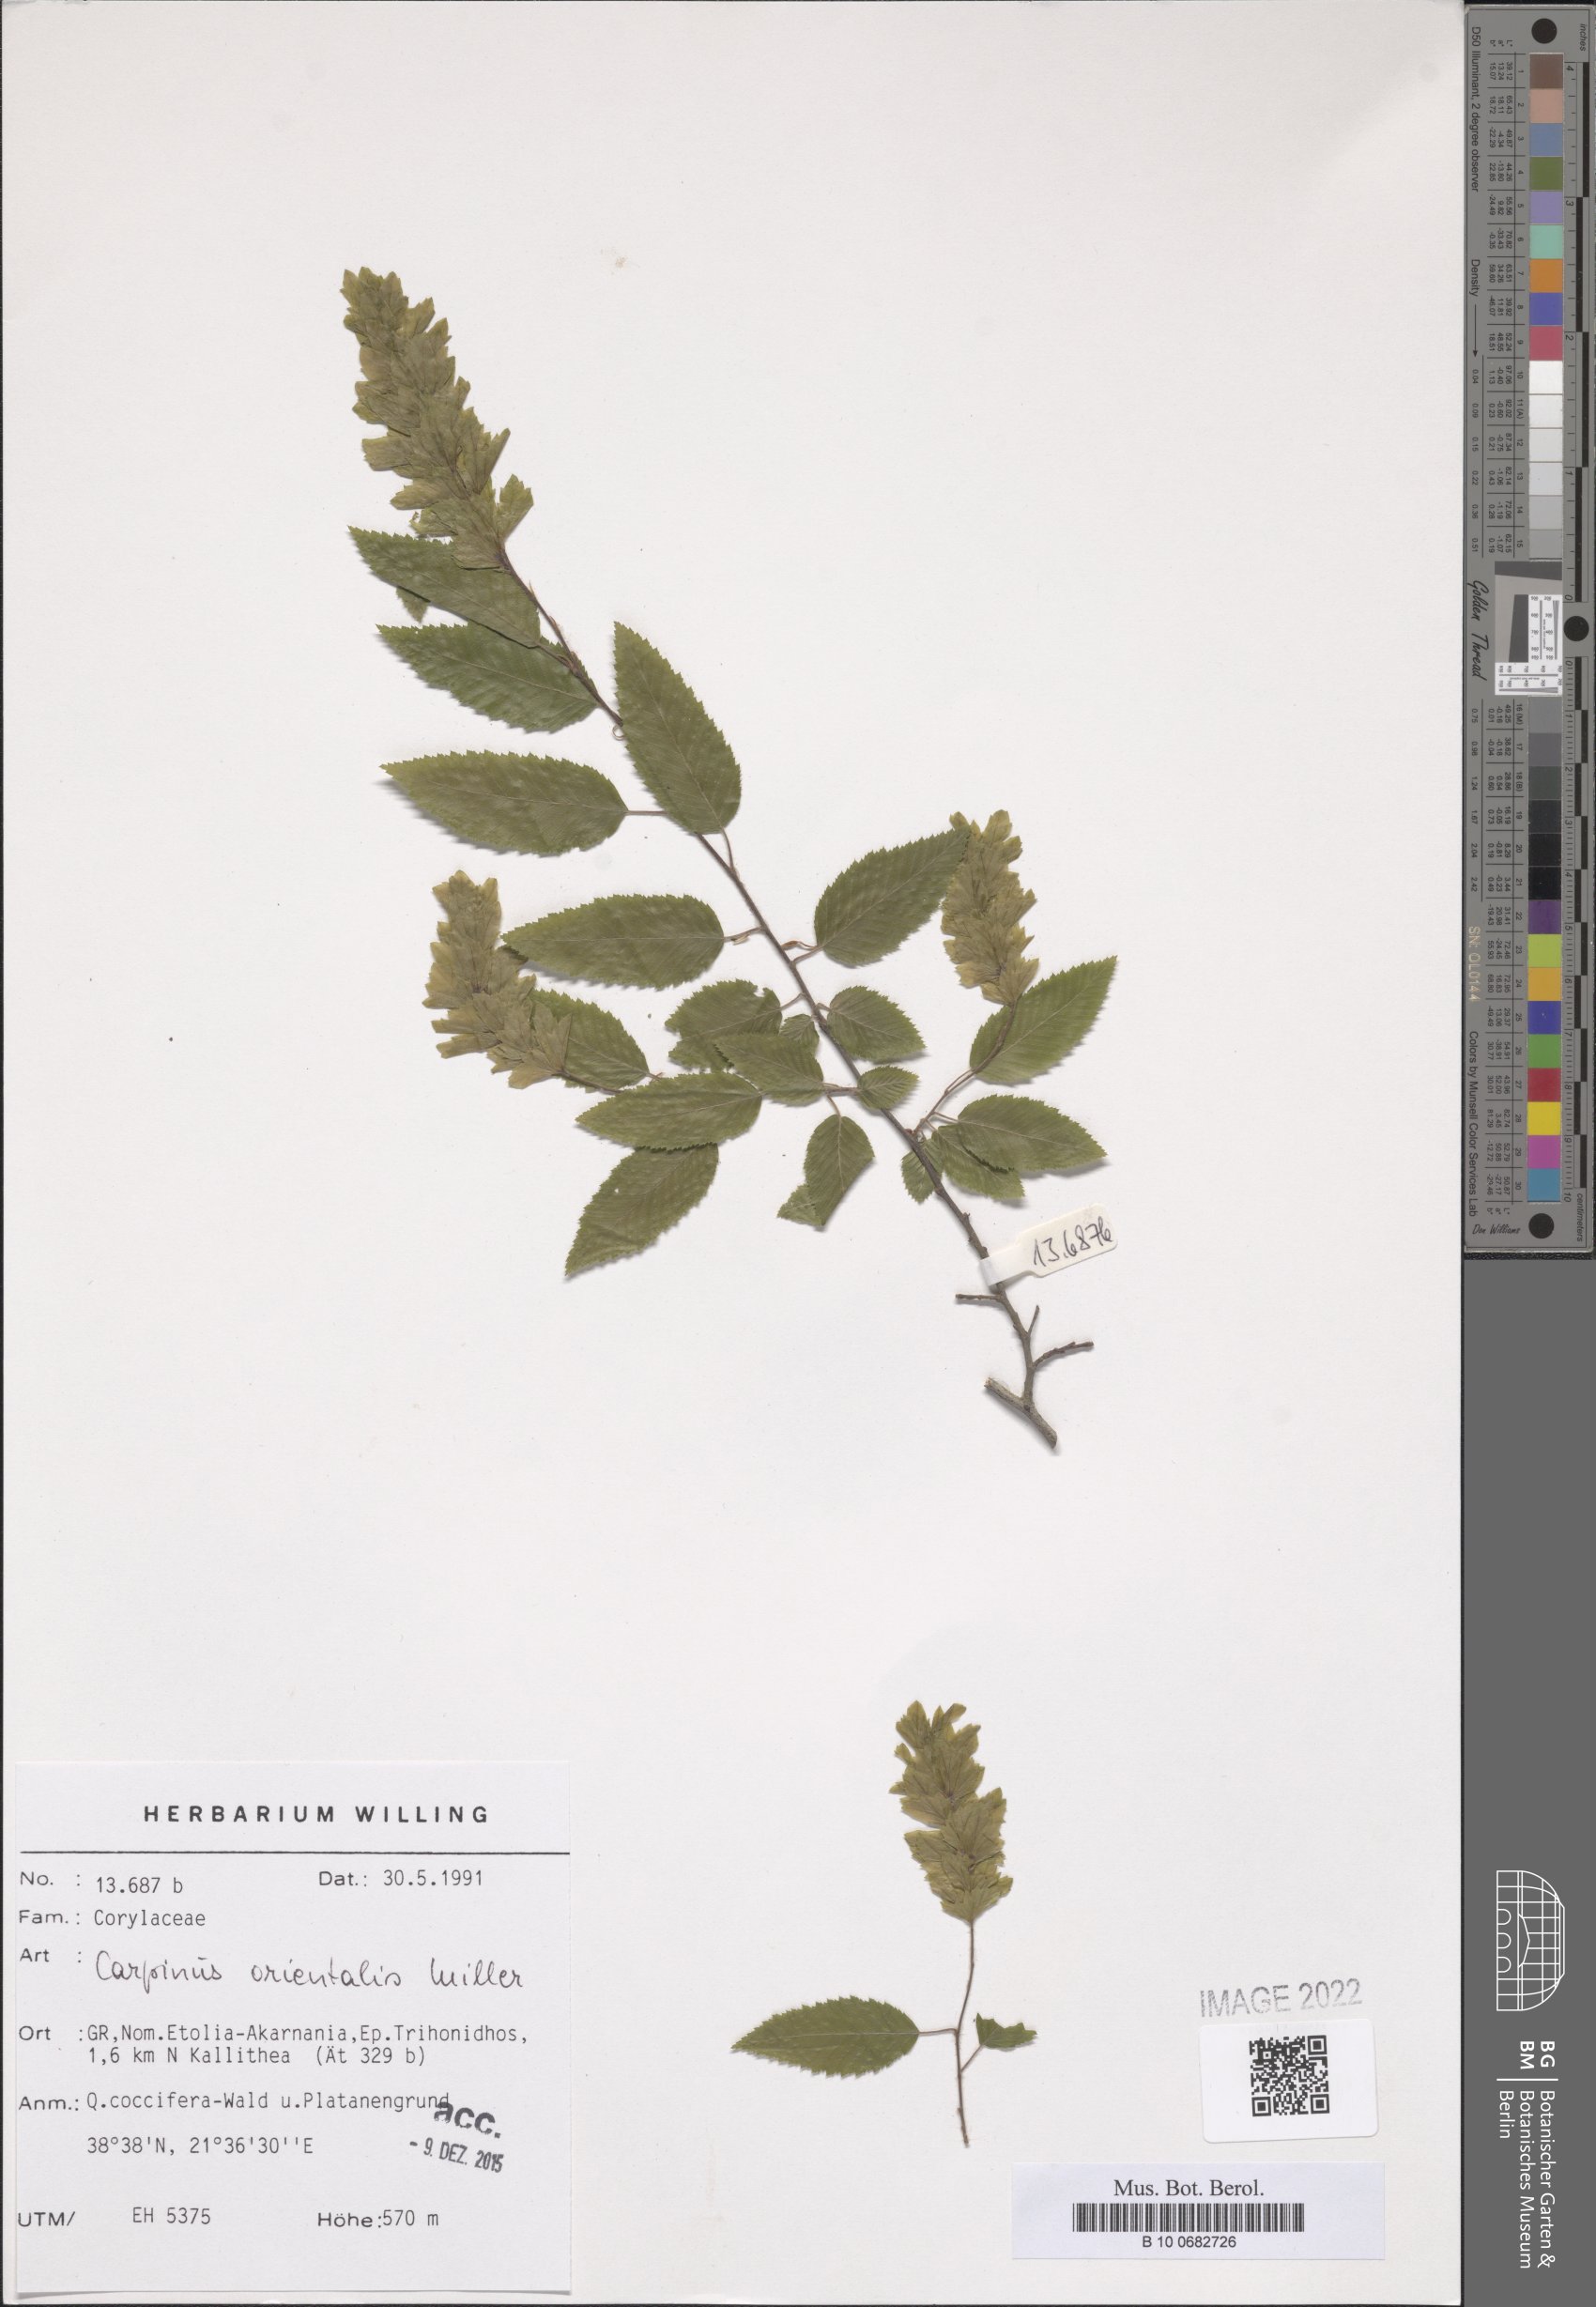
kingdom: Plantae
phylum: Tracheophyta
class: Magnoliopsida
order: Fagales
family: Betulaceae
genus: Carpinus
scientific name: Carpinus orientalis
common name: Eastern hornbeam
